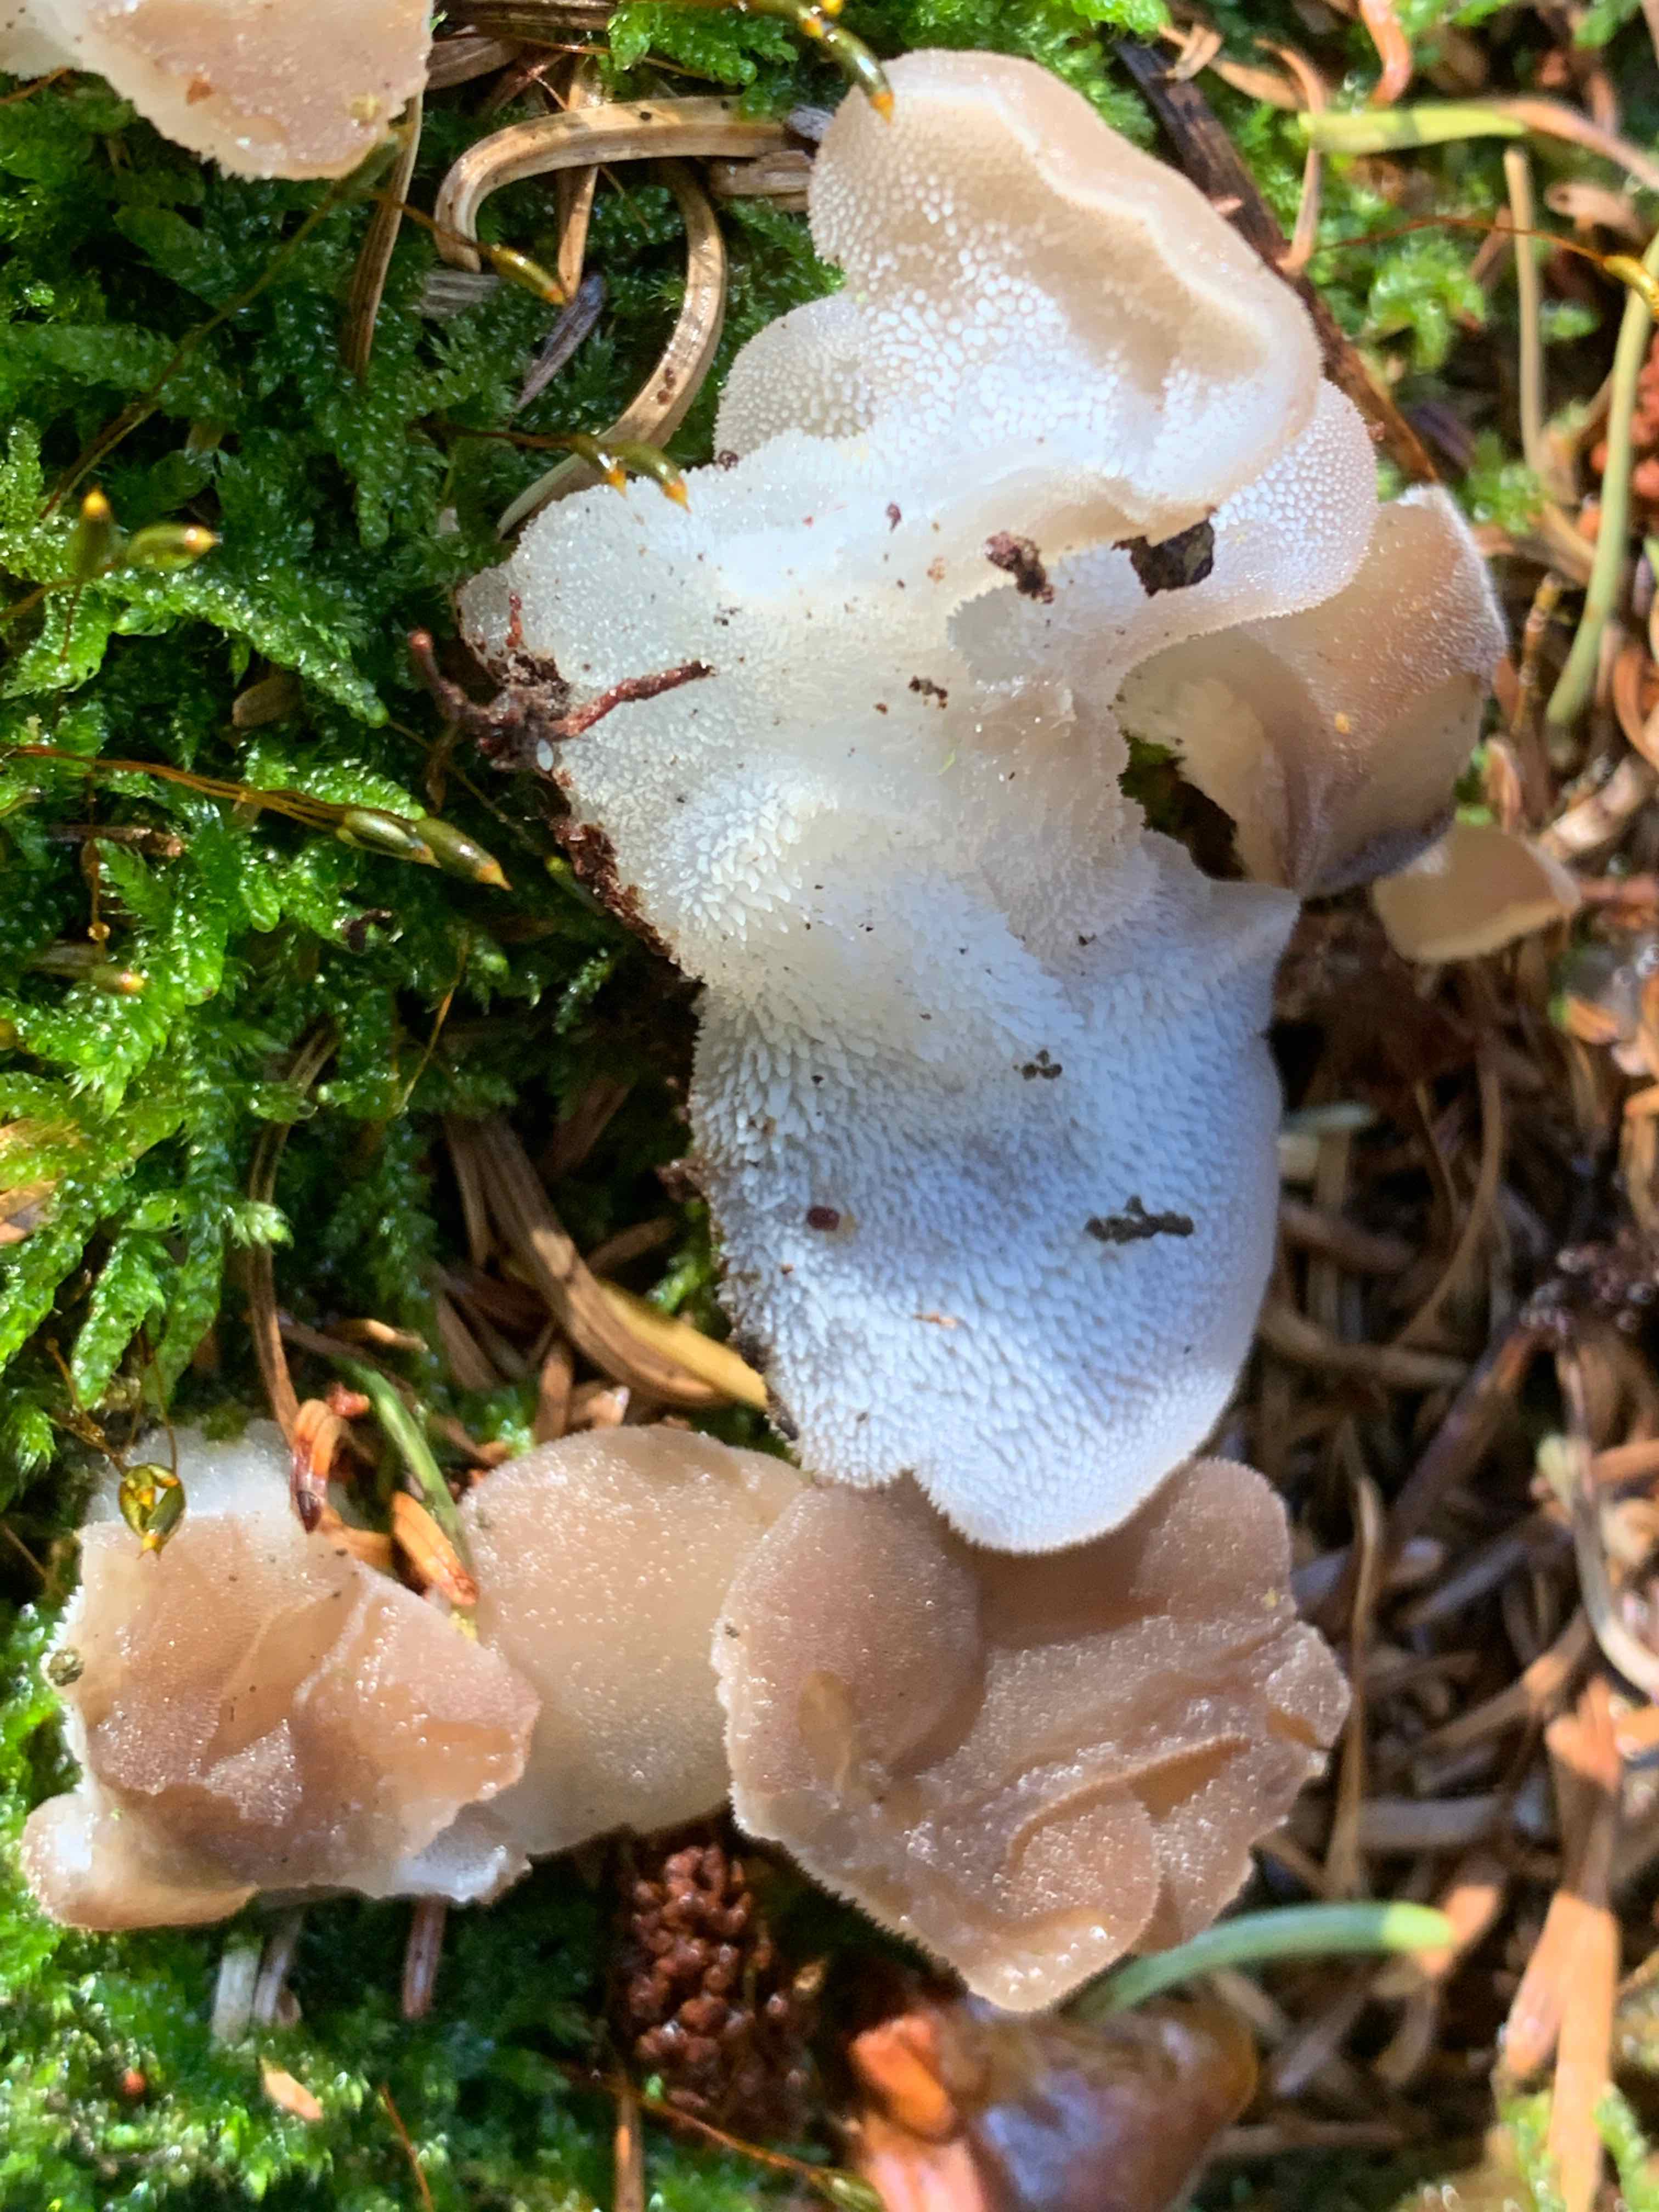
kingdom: Fungi
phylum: Basidiomycota
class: Agaricomycetes
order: Auriculariales
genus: Pseudohydnum
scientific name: Pseudohydnum gelatinosum
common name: bævretand
